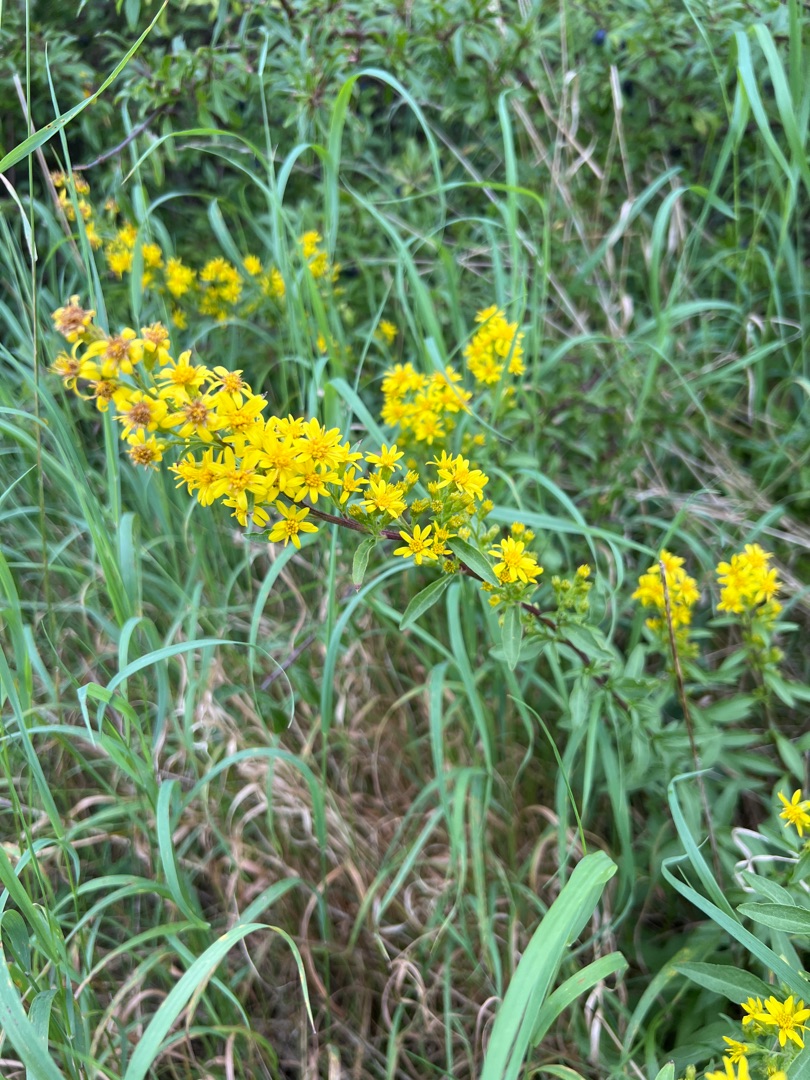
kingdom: Plantae
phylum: Tracheophyta
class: Magnoliopsida
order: Asterales
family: Asteraceae
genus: Solidago
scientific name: Solidago virgaurea
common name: Almindelig gyldenris
